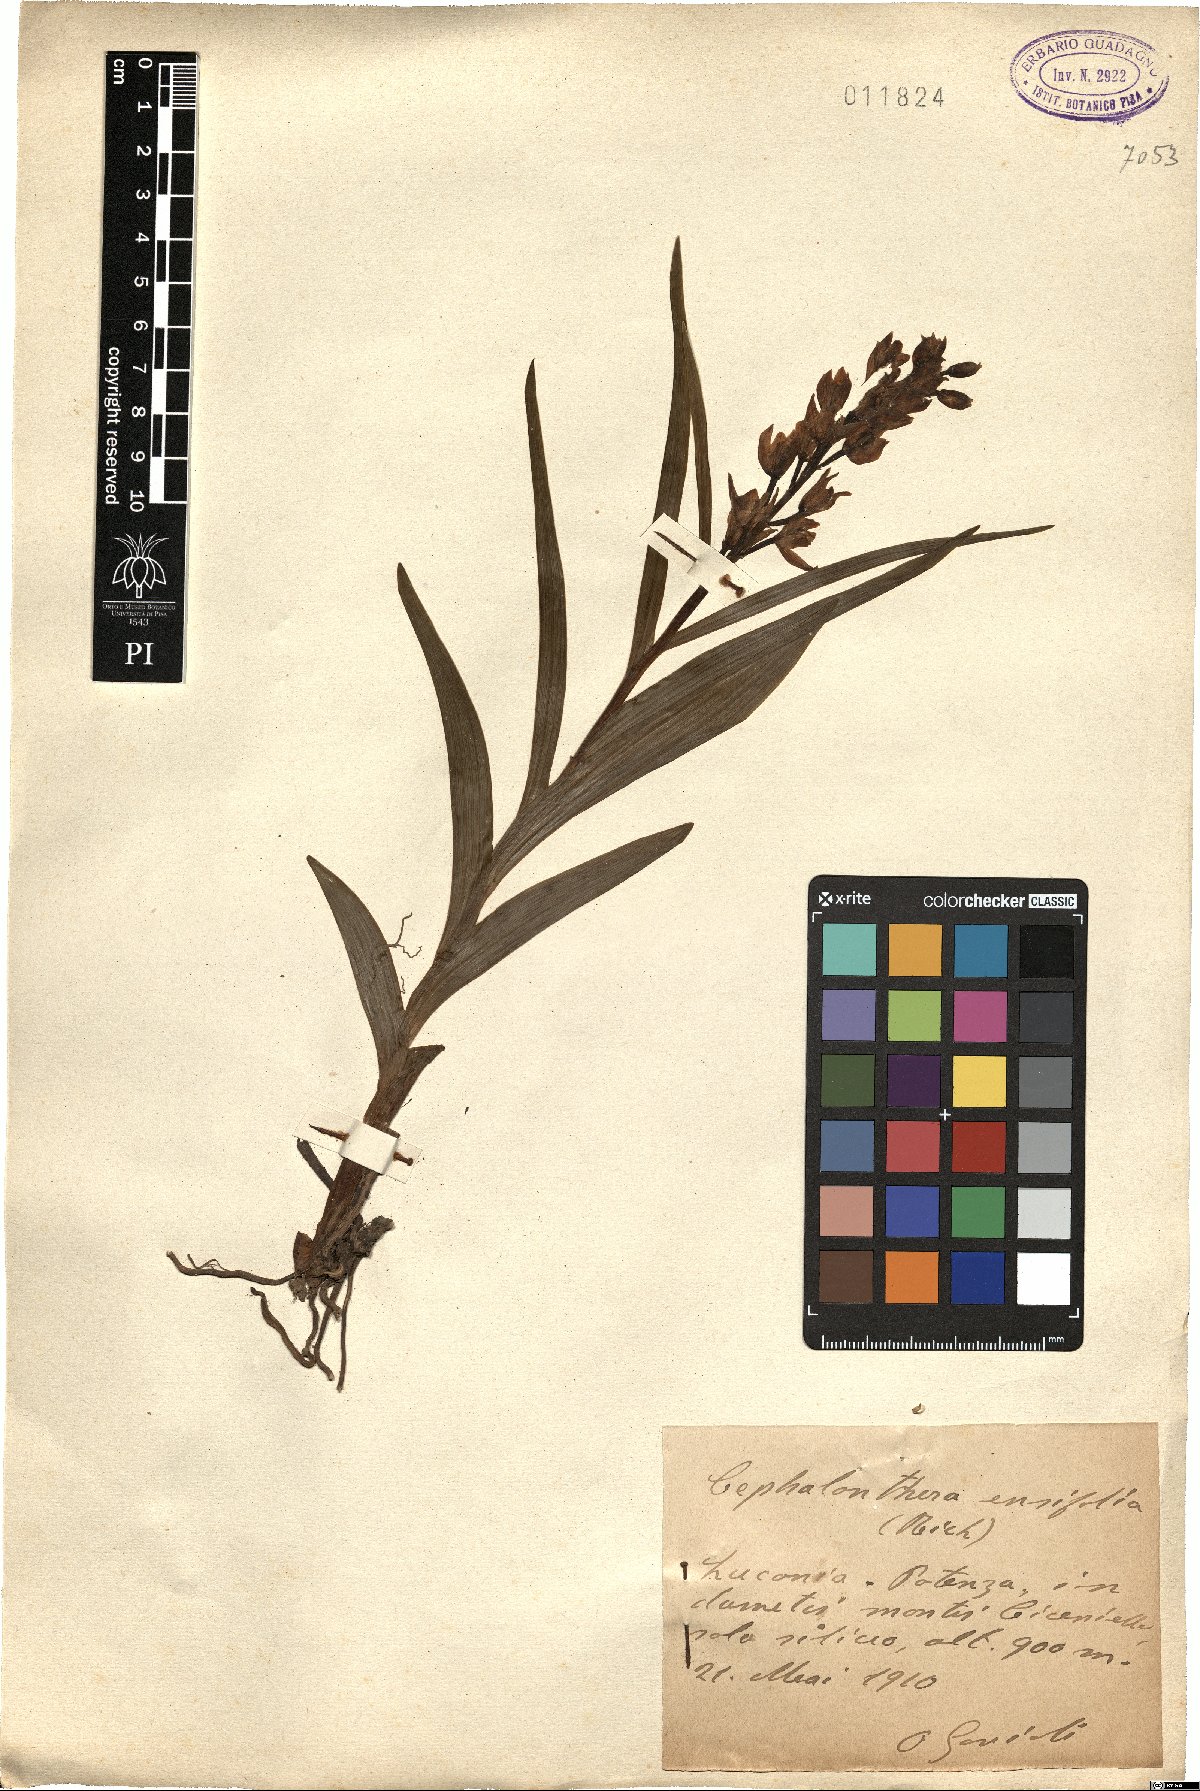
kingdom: Plantae
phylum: Tracheophyta
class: Liliopsida
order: Asparagales
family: Orchidaceae
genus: Cephalanthera
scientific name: Cephalanthera longifolia
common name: Narrow-leaved helleborine
